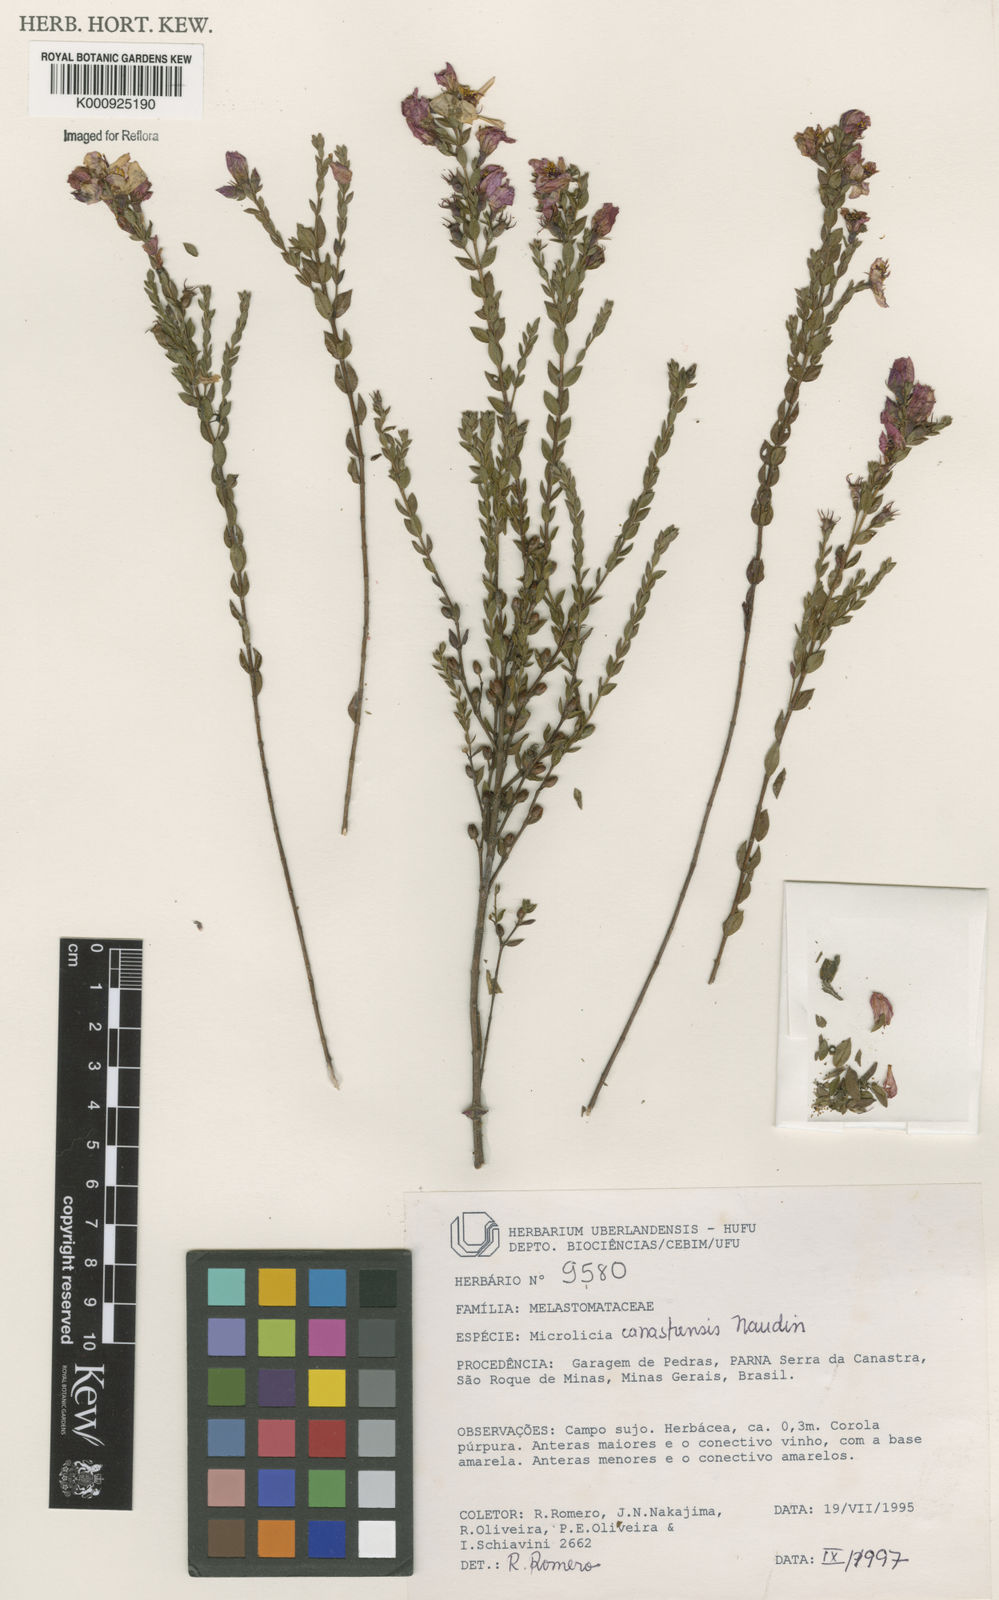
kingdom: Plantae
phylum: Tracheophyta
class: Magnoliopsida
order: Myrtales
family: Melastomataceae
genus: Microlicia
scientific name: Microlicia canastrensis
